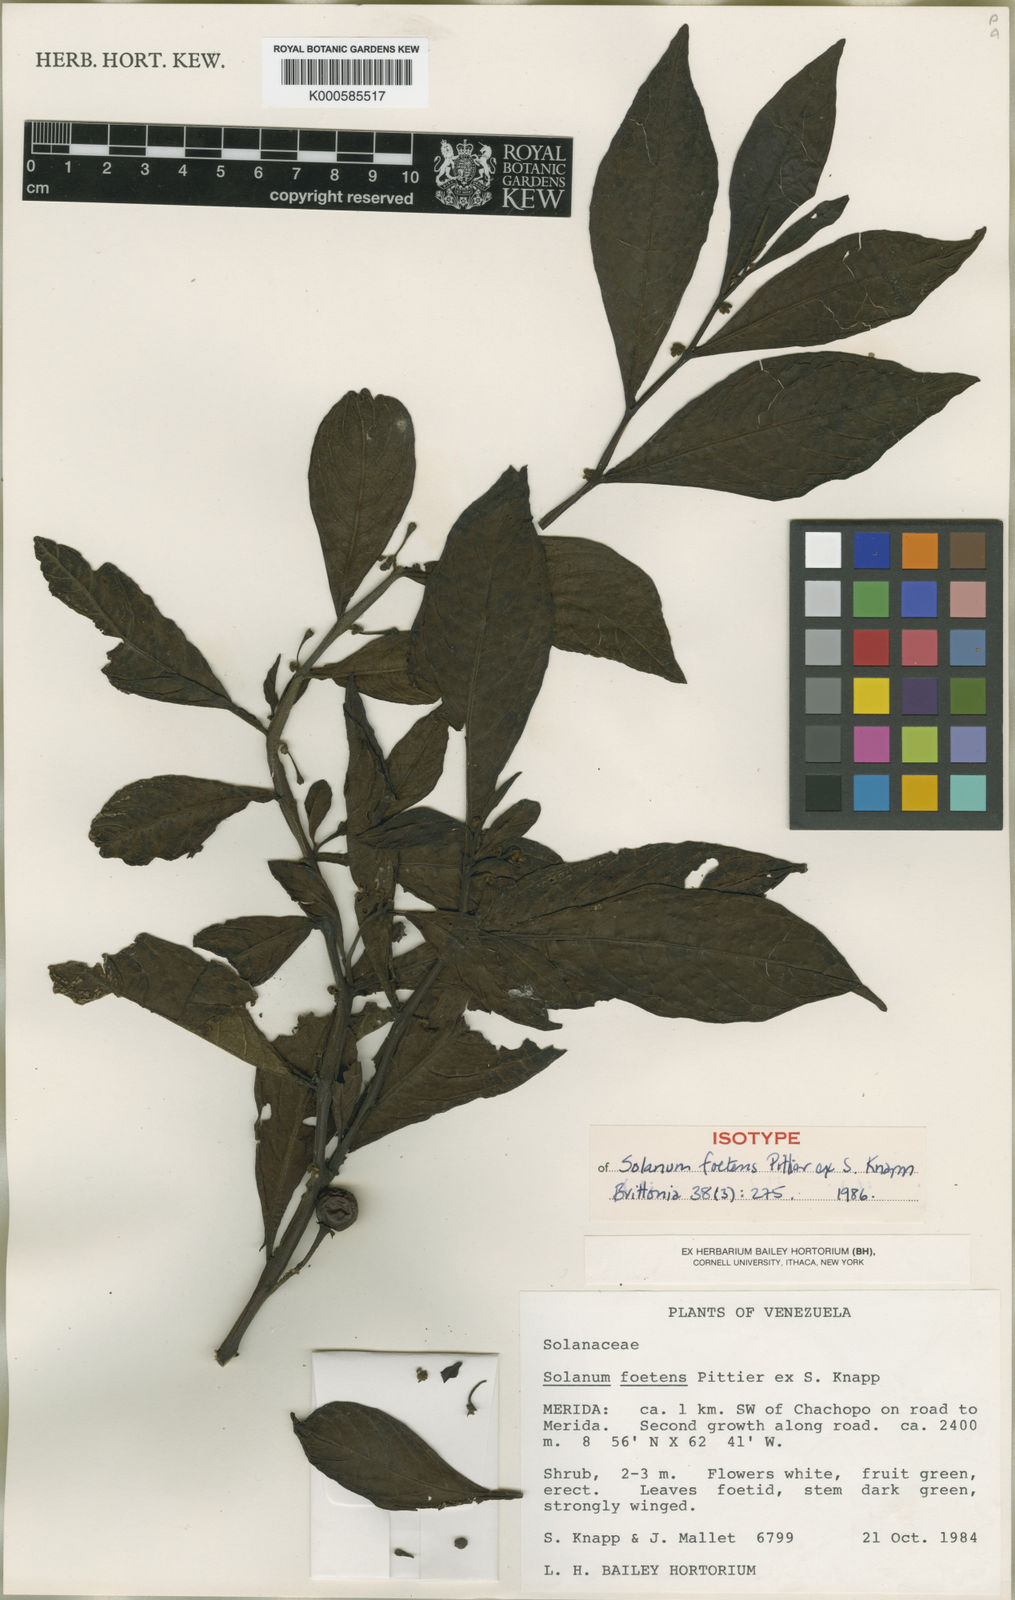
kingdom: Plantae
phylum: Tracheophyta
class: Magnoliopsida
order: Solanales
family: Solanaceae
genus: Solanum
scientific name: Solanum foetens
